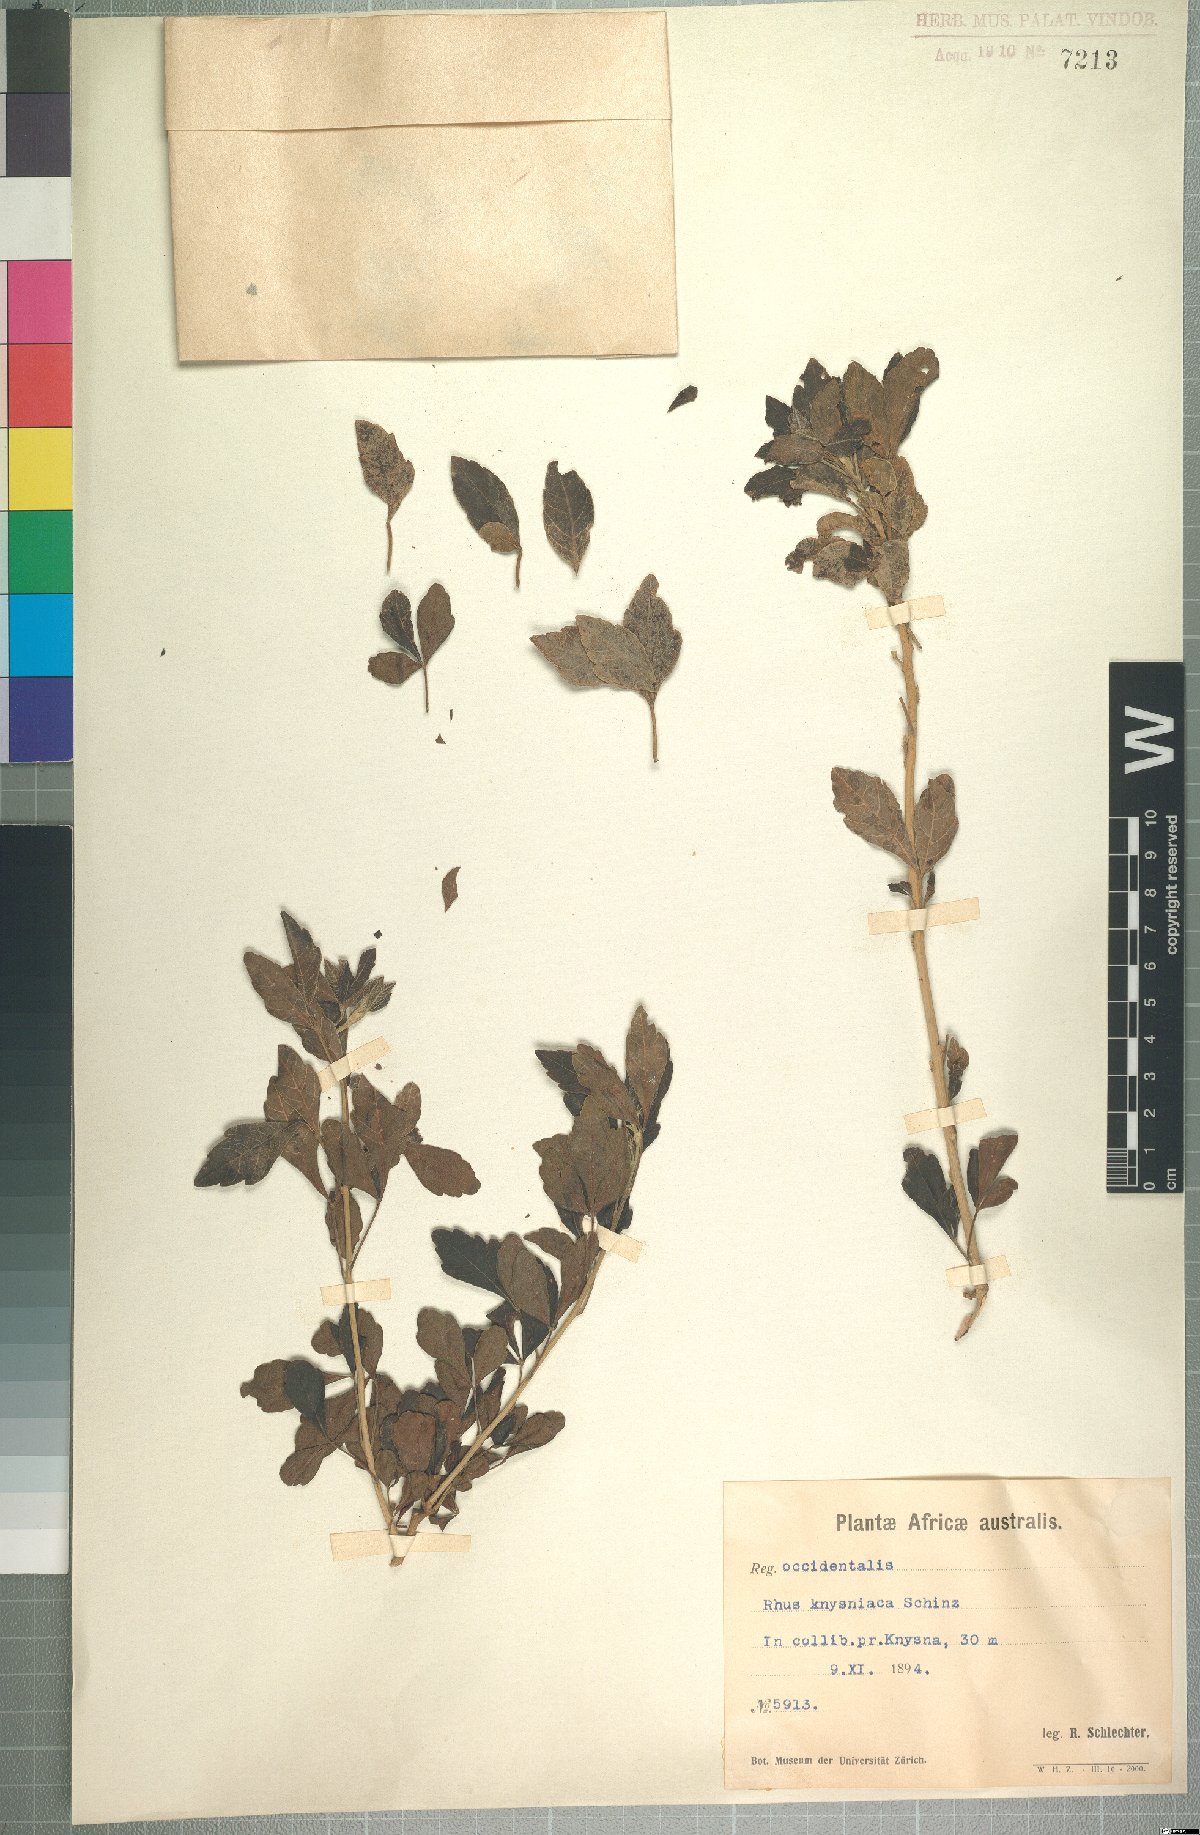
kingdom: Plantae
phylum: Tracheophyta
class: Magnoliopsida
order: Sapindales
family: Sapindaceae
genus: Allophylus
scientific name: Allophylus decipiens
